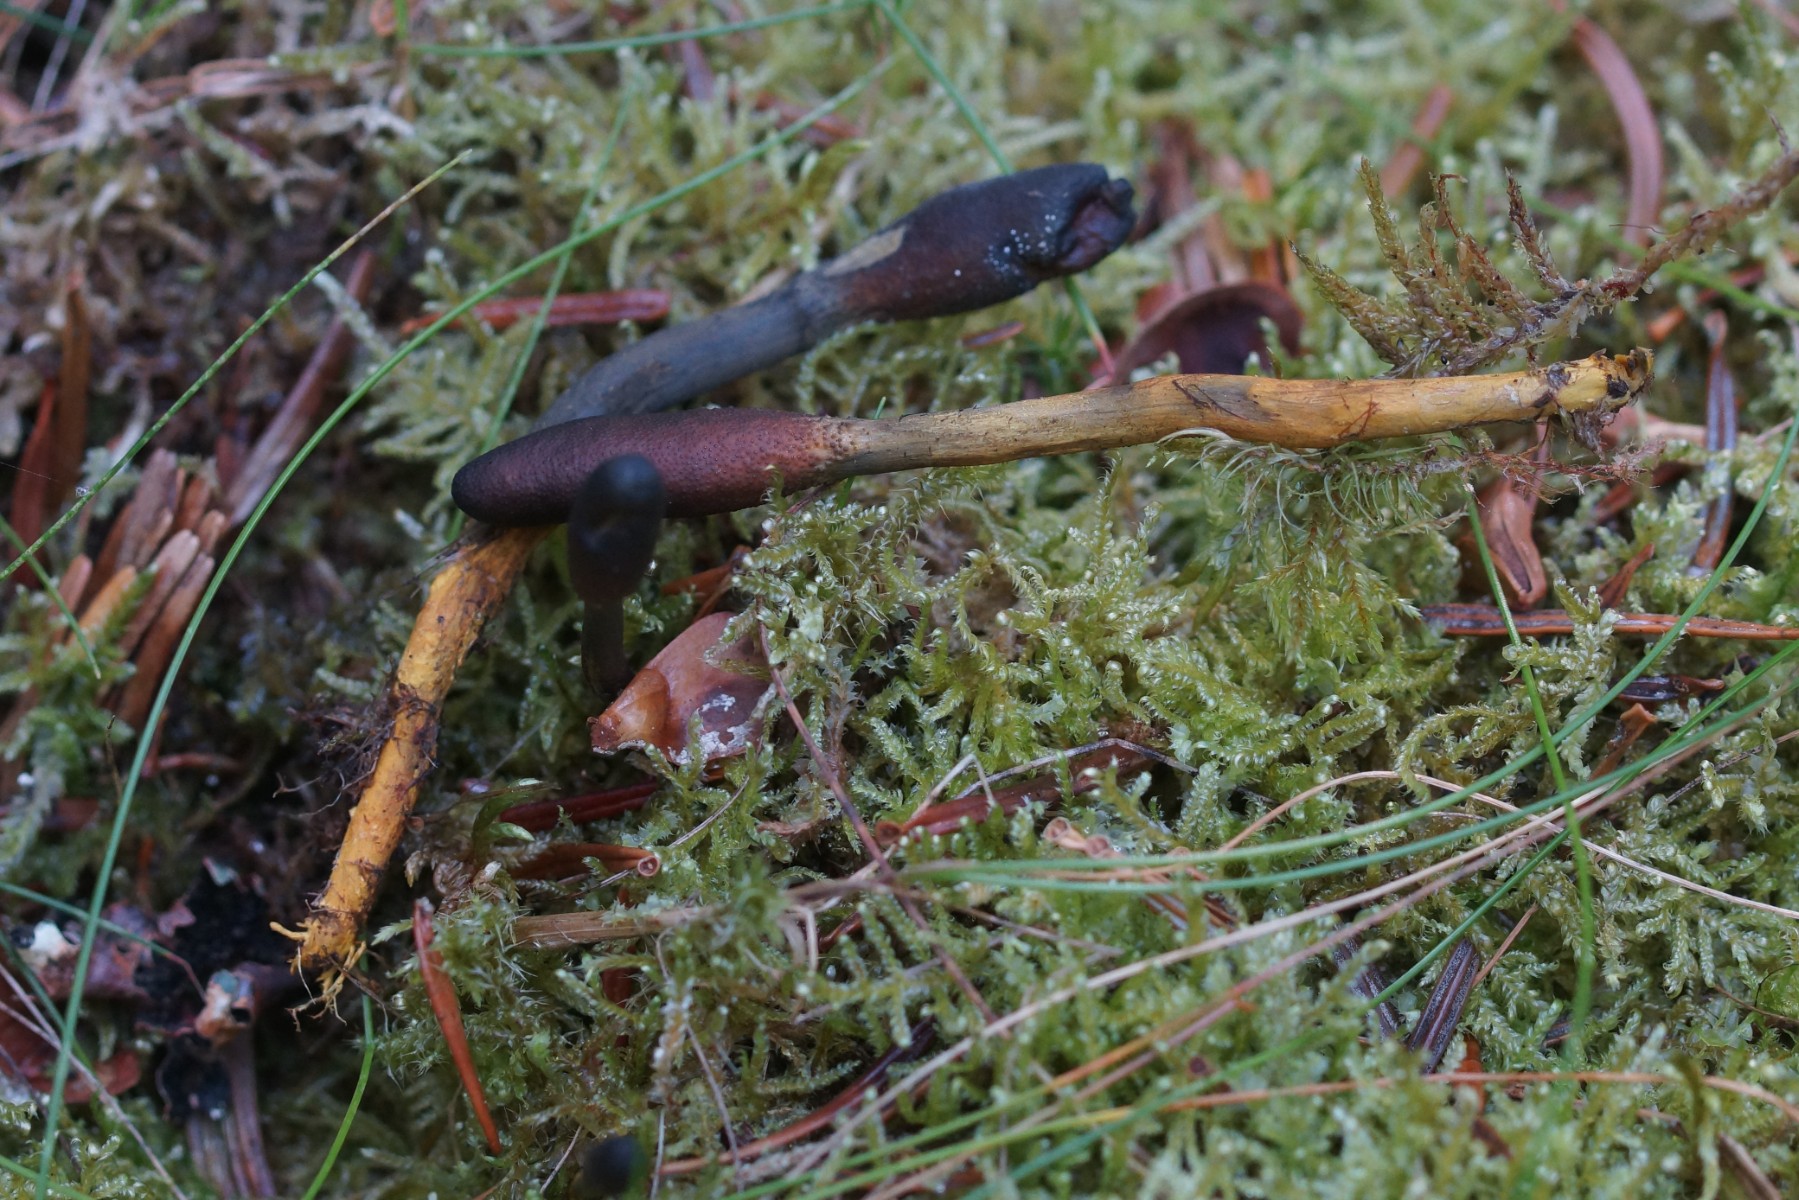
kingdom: Fungi
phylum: Ascomycota
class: Sordariomycetes
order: Hypocreales
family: Ophiocordycipitaceae
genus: Tolypocladium
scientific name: Tolypocladium ophioglossoides
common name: slank snyltekølle
